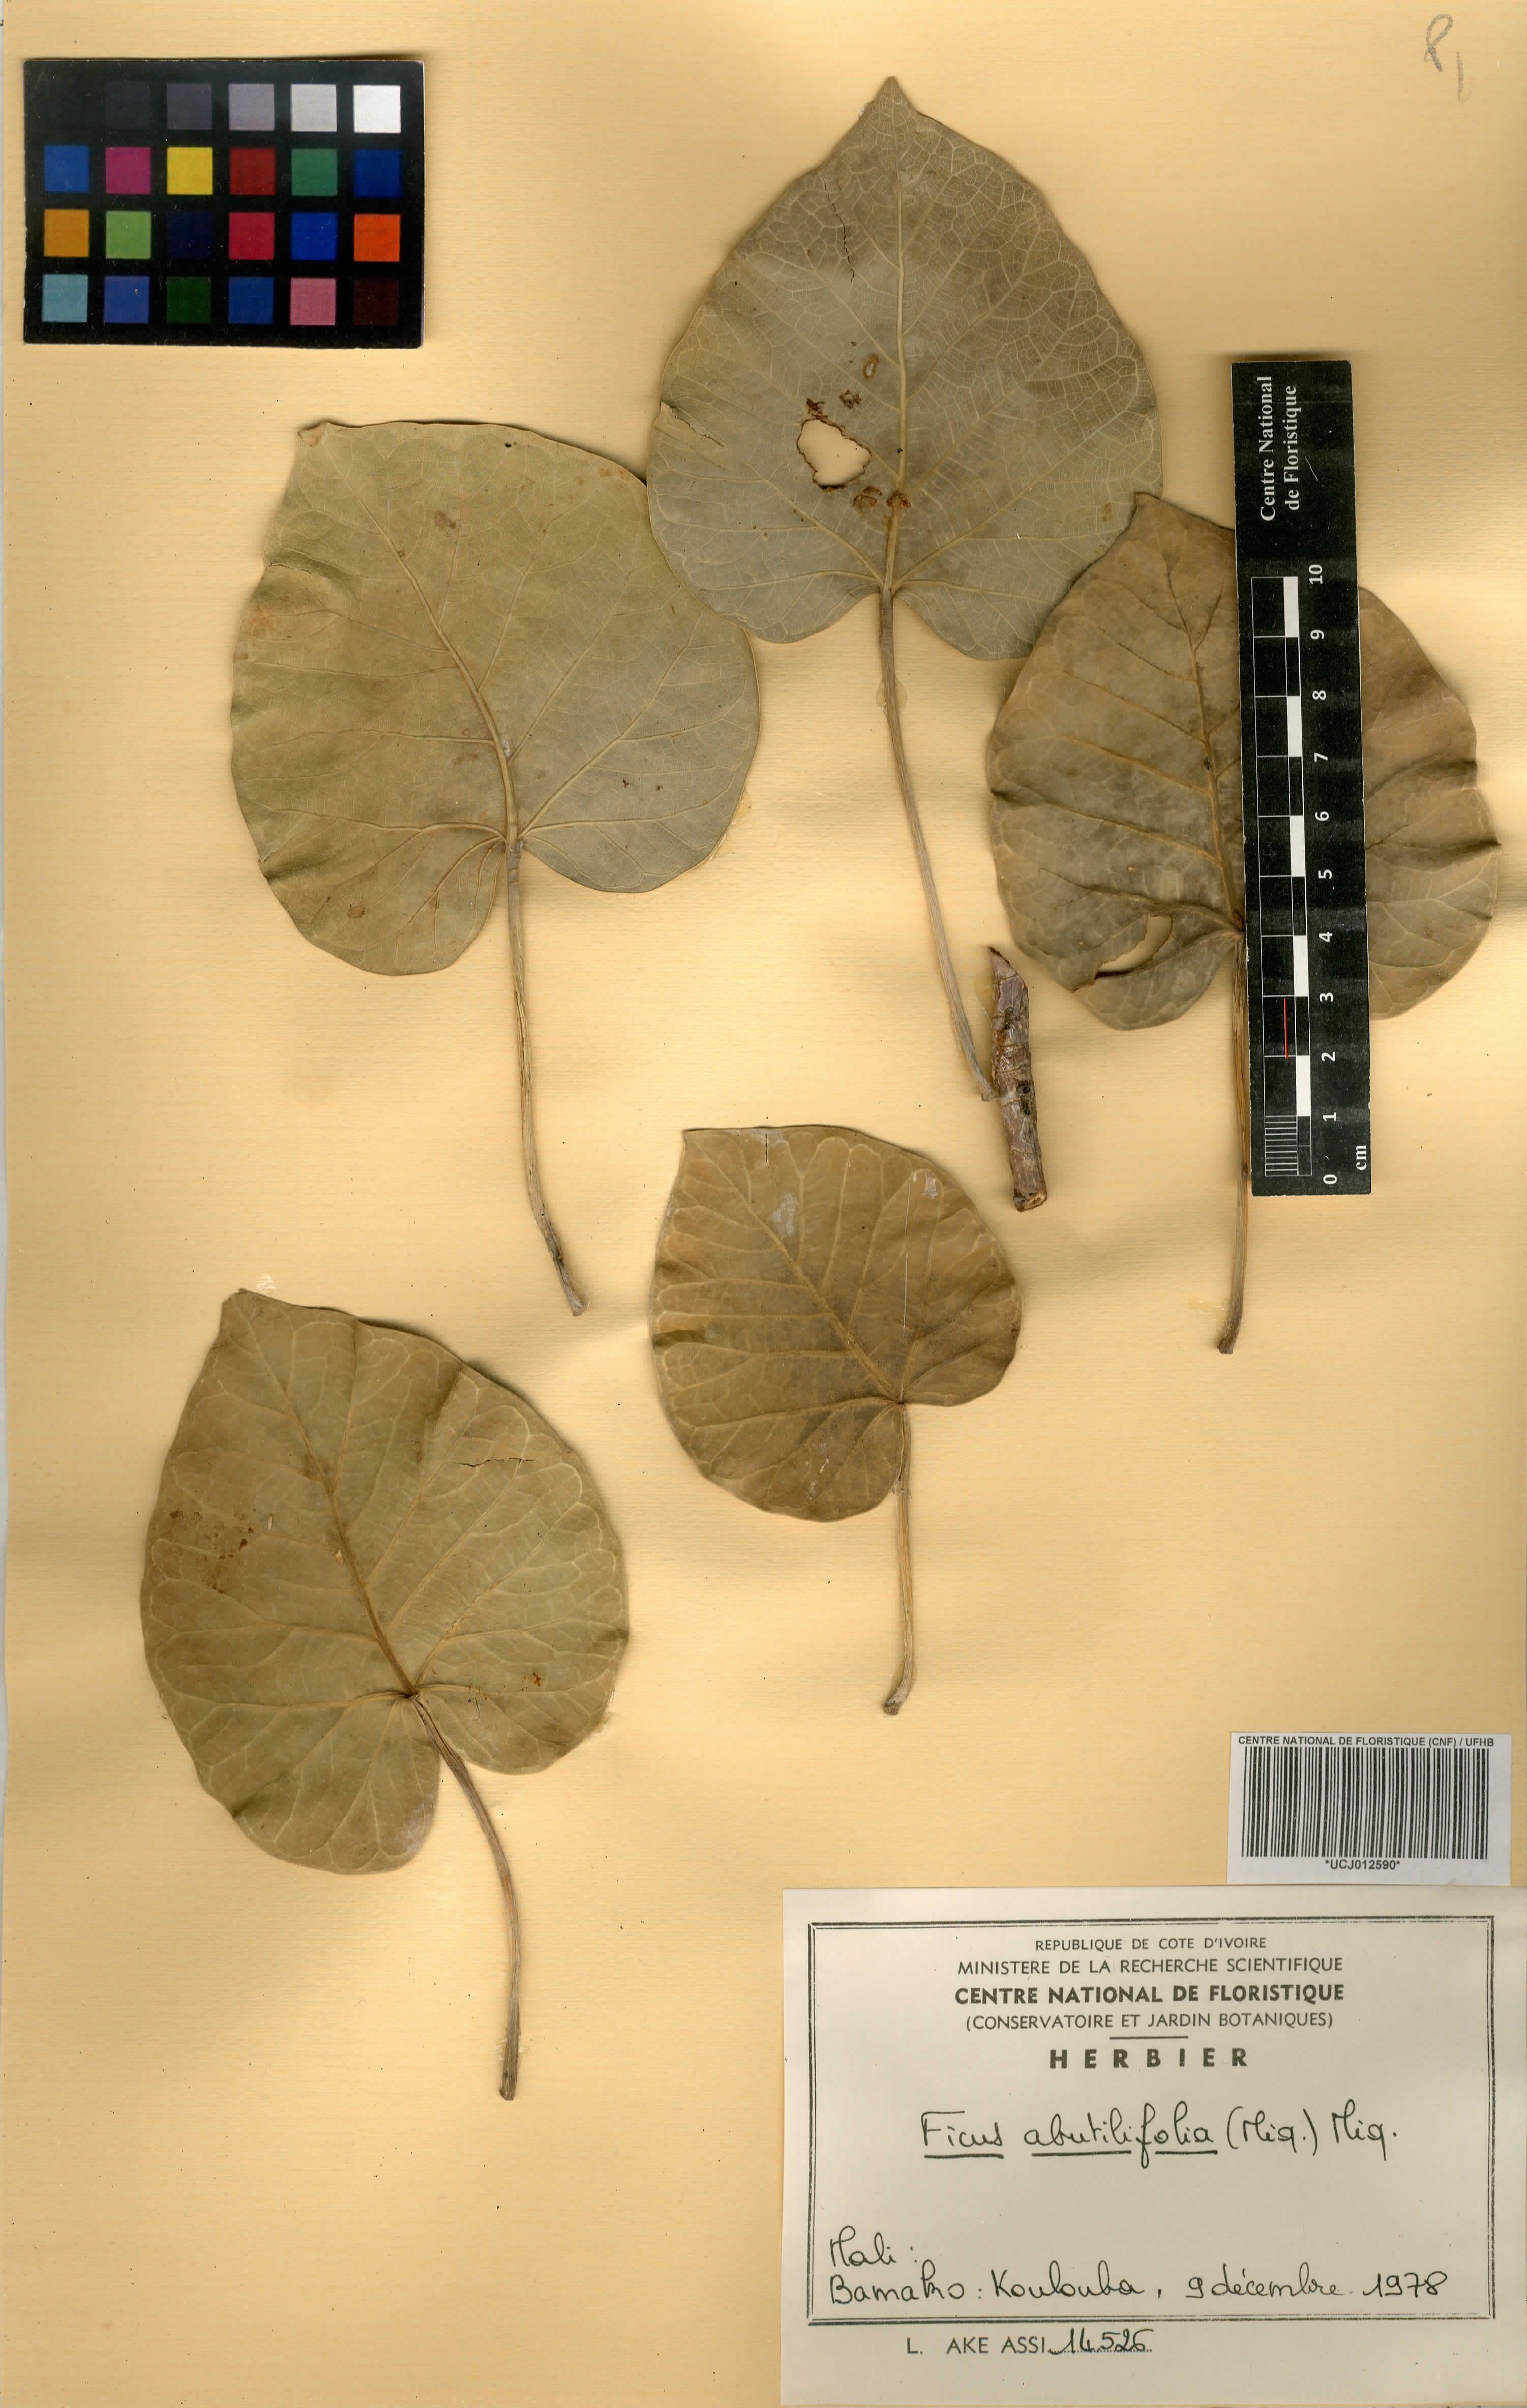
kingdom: Plantae
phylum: Tracheophyta
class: Magnoliopsida
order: Rosales
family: Moraceae
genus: Ficus
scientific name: Ficus abutilifolia
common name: Large-leaved rock fig
